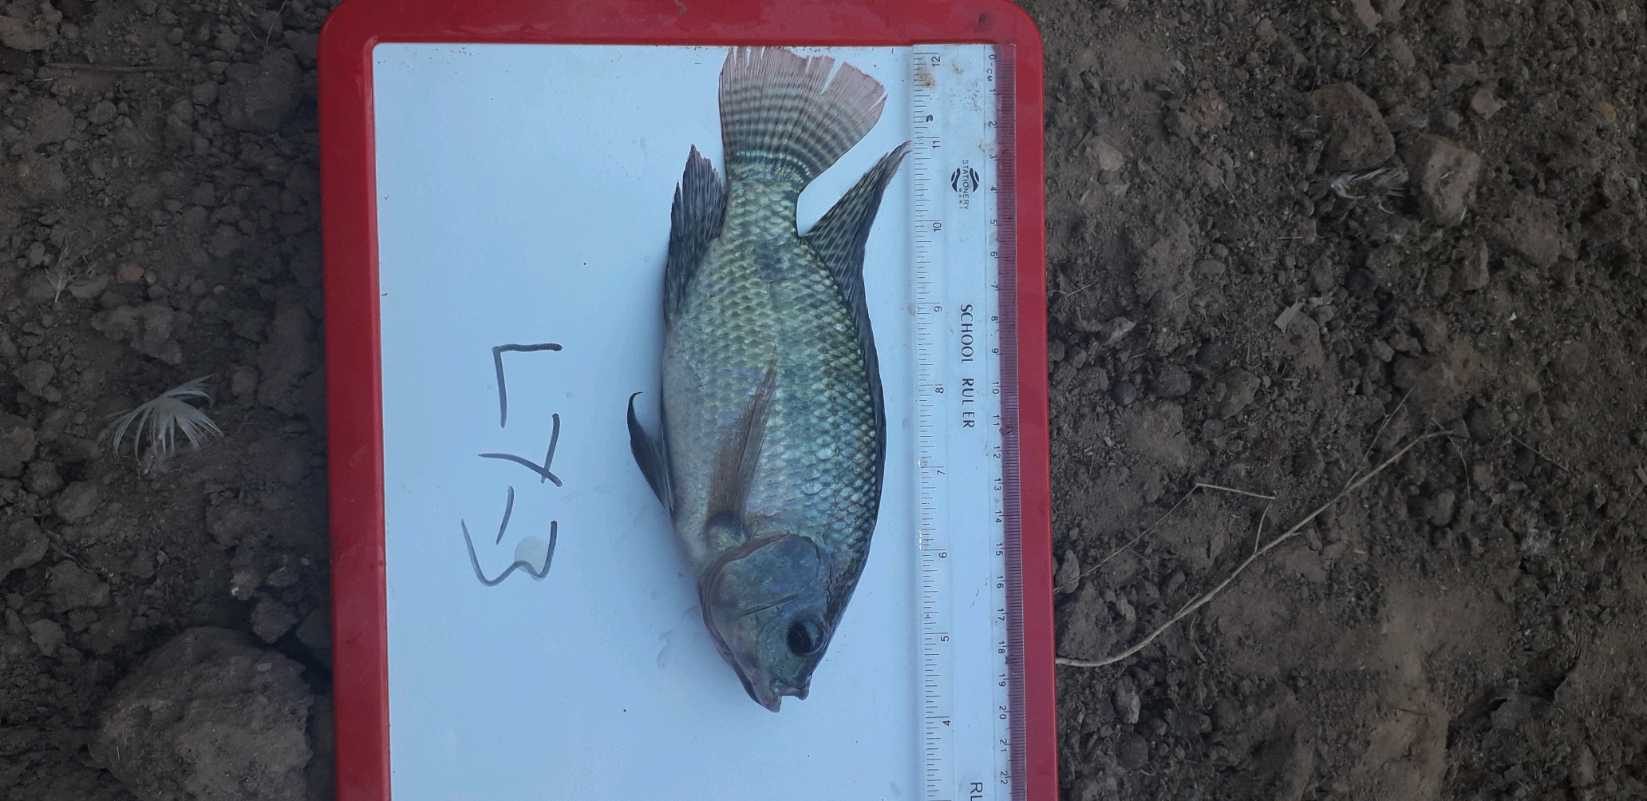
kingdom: Animalia
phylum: Chordata
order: Perciformes
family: Cichlidae
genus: Oreochromis
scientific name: Oreochromis niloticus
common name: Nile tilapia
